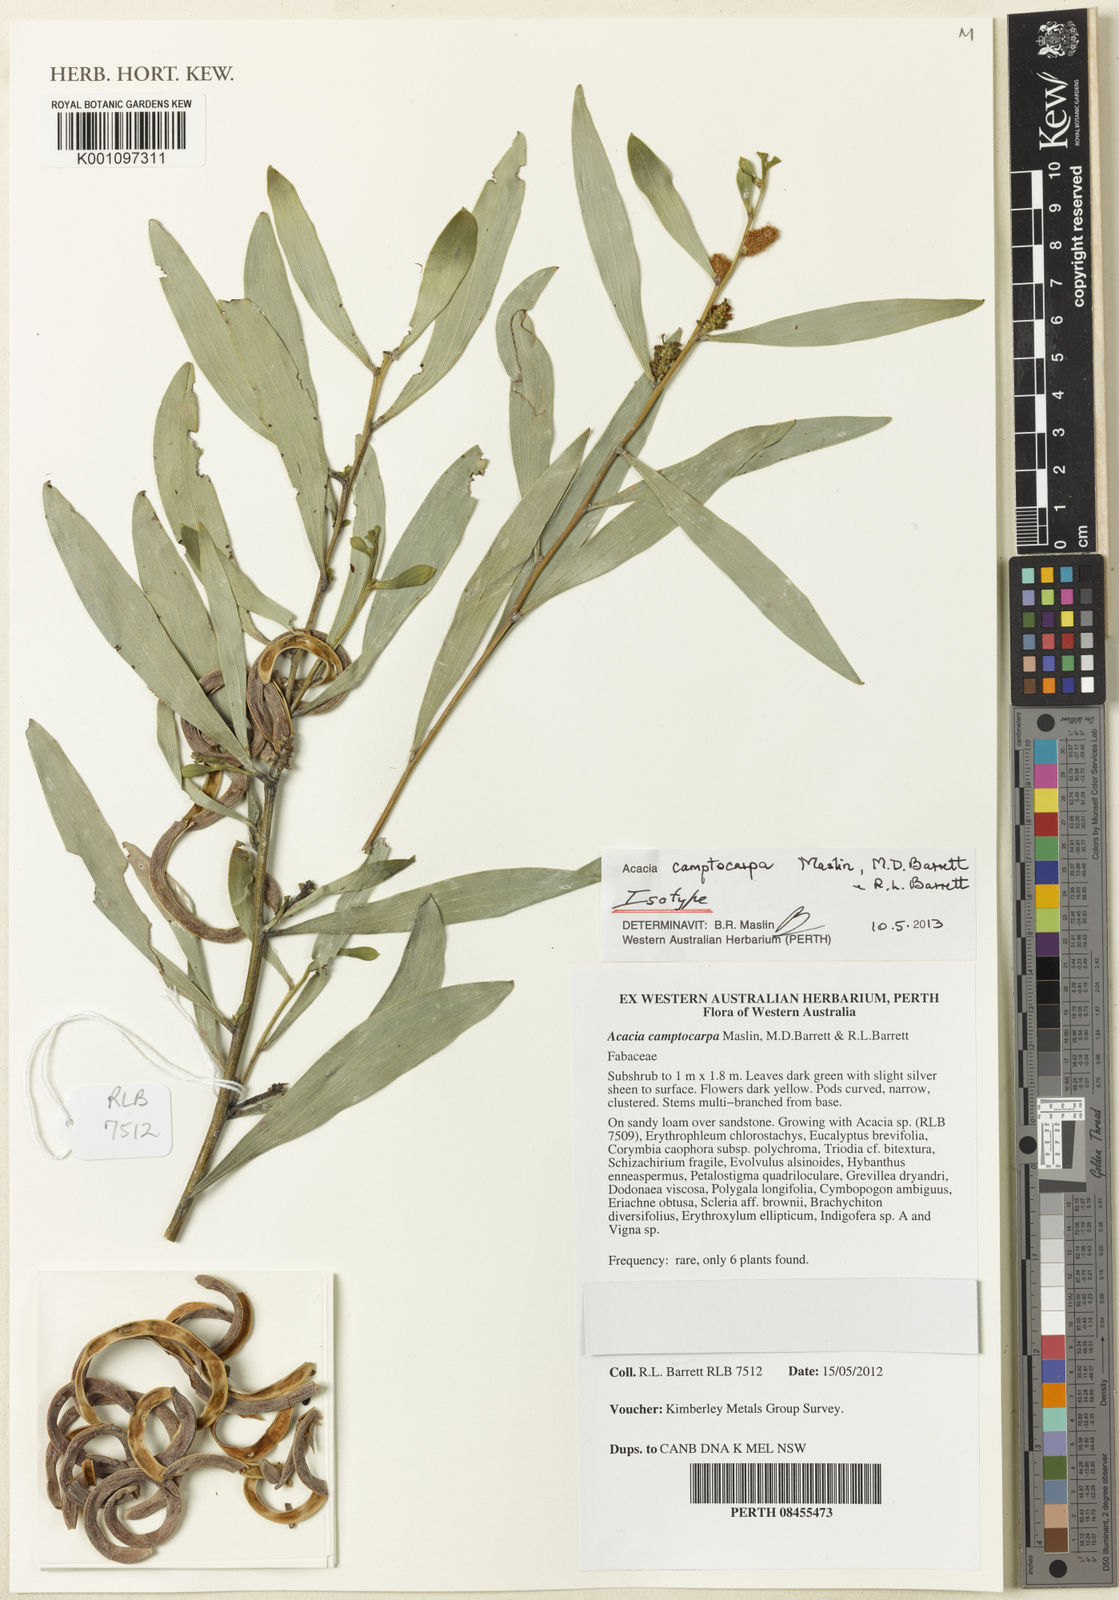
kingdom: Plantae
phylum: Tracheophyta
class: Magnoliopsida
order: Fabales
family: Fabaceae
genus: Acacia
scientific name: Acacia camptocarpa
